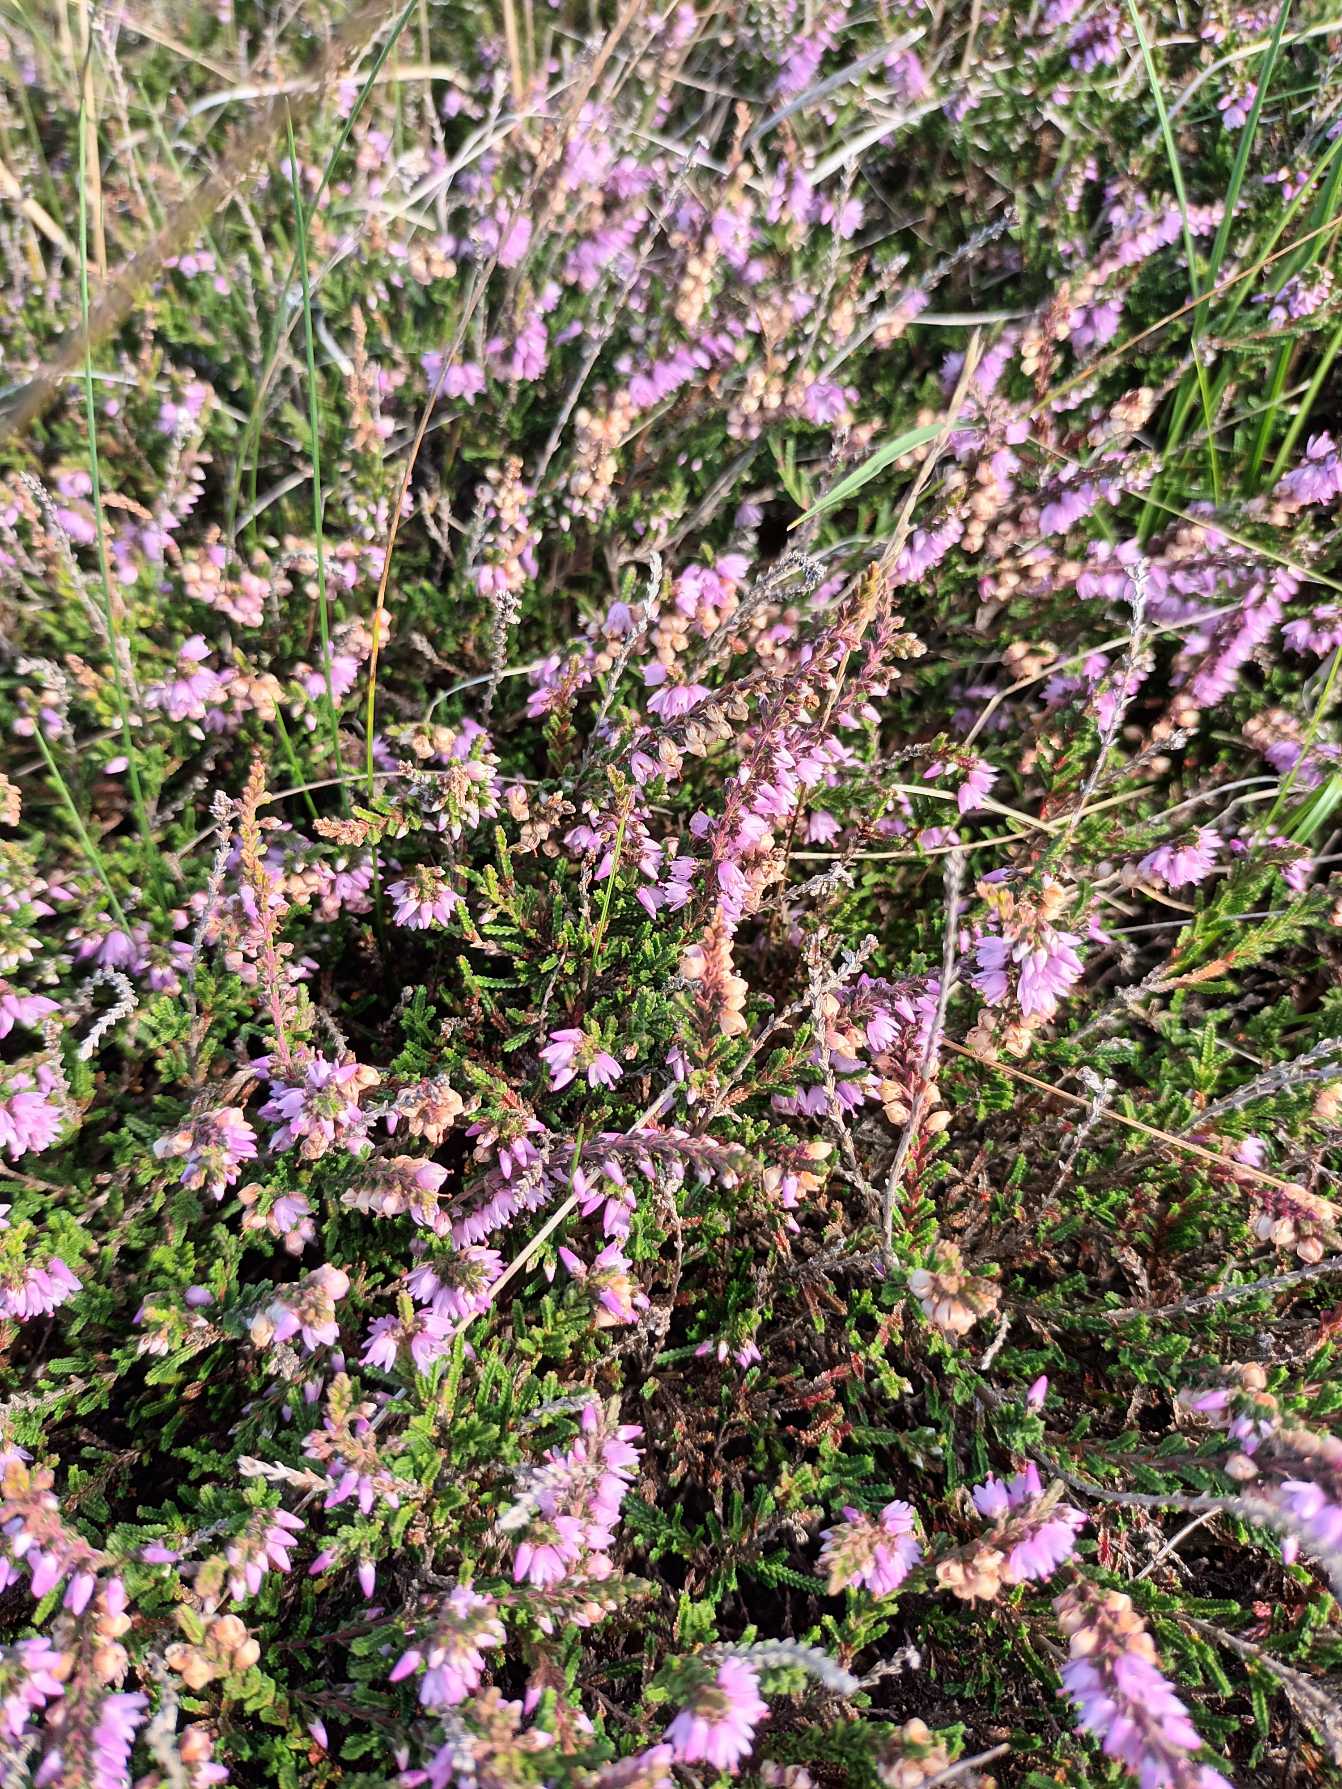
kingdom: Plantae
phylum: Tracheophyta
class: Magnoliopsida
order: Ericales
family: Ericaceae
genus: Calluna
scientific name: Calluna vulgaris
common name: Hedelyng
